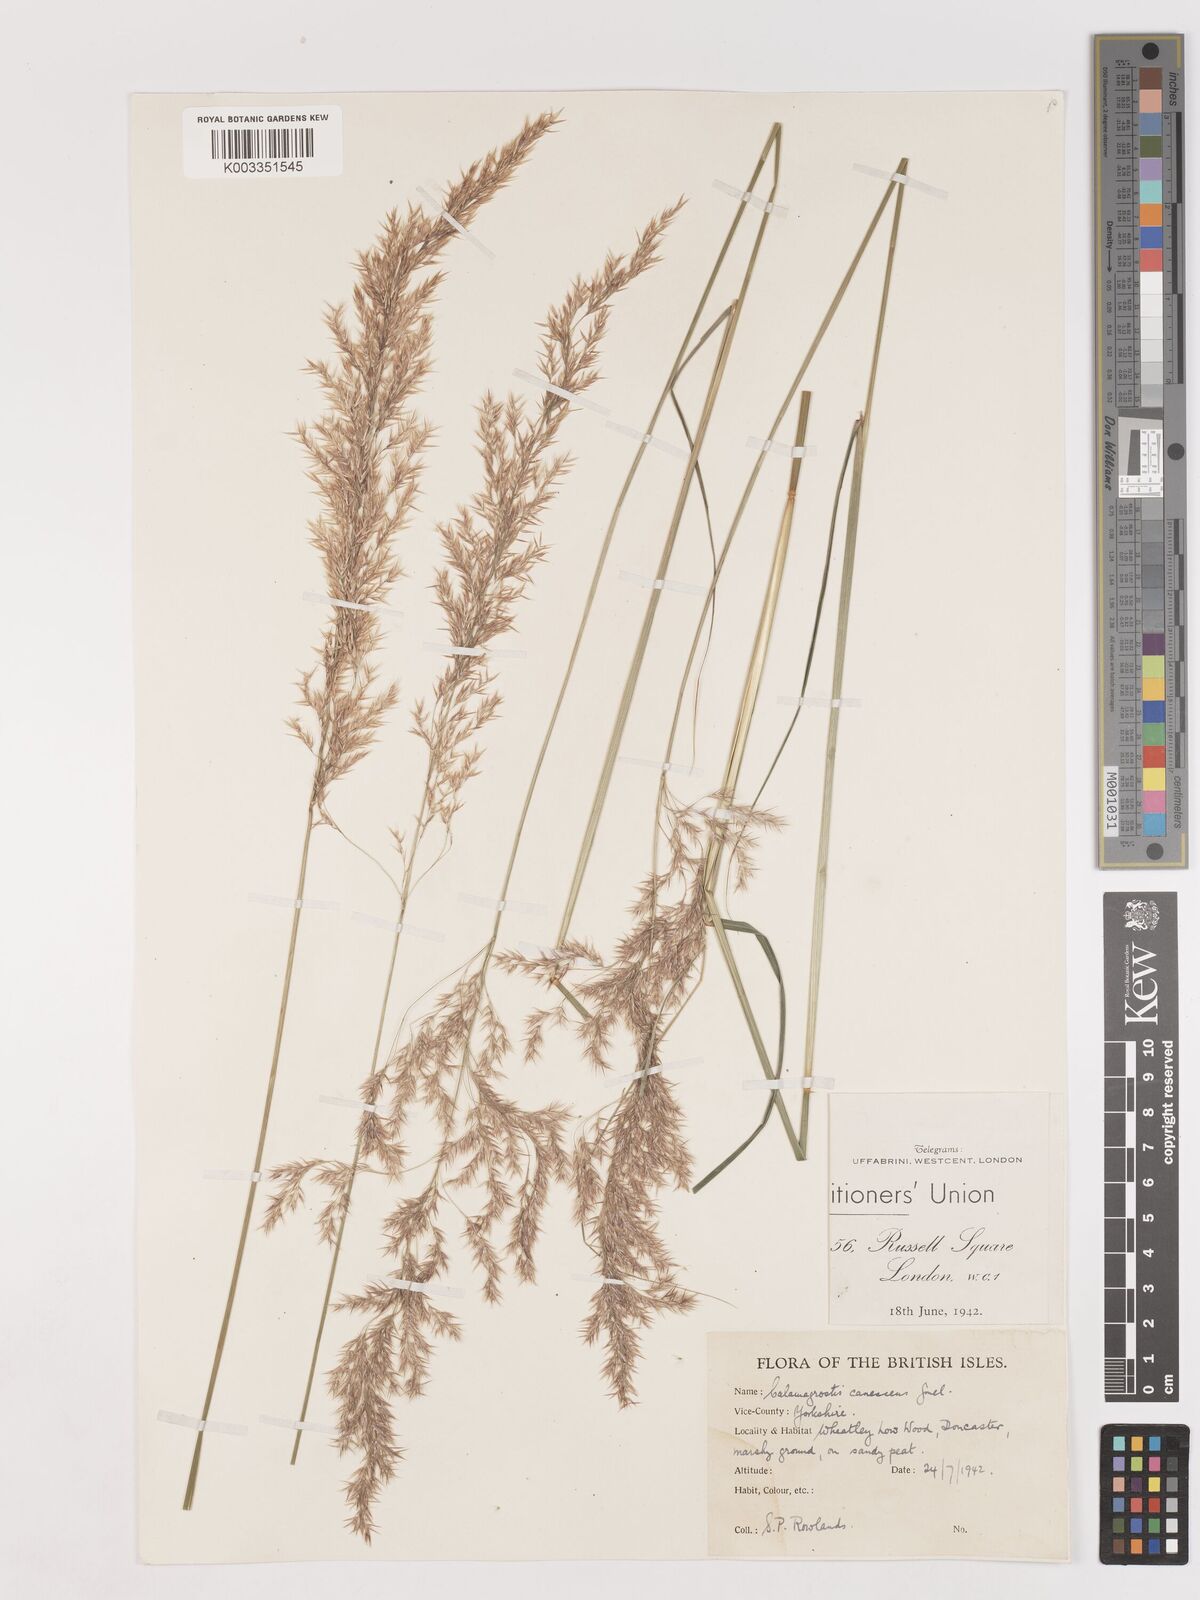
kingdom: Plantae
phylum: Tracheophyta
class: Liliopsida
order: Poales
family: Poaceae
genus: Calamagrostis
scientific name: Calamagrostis canescens
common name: Purple small-reed
